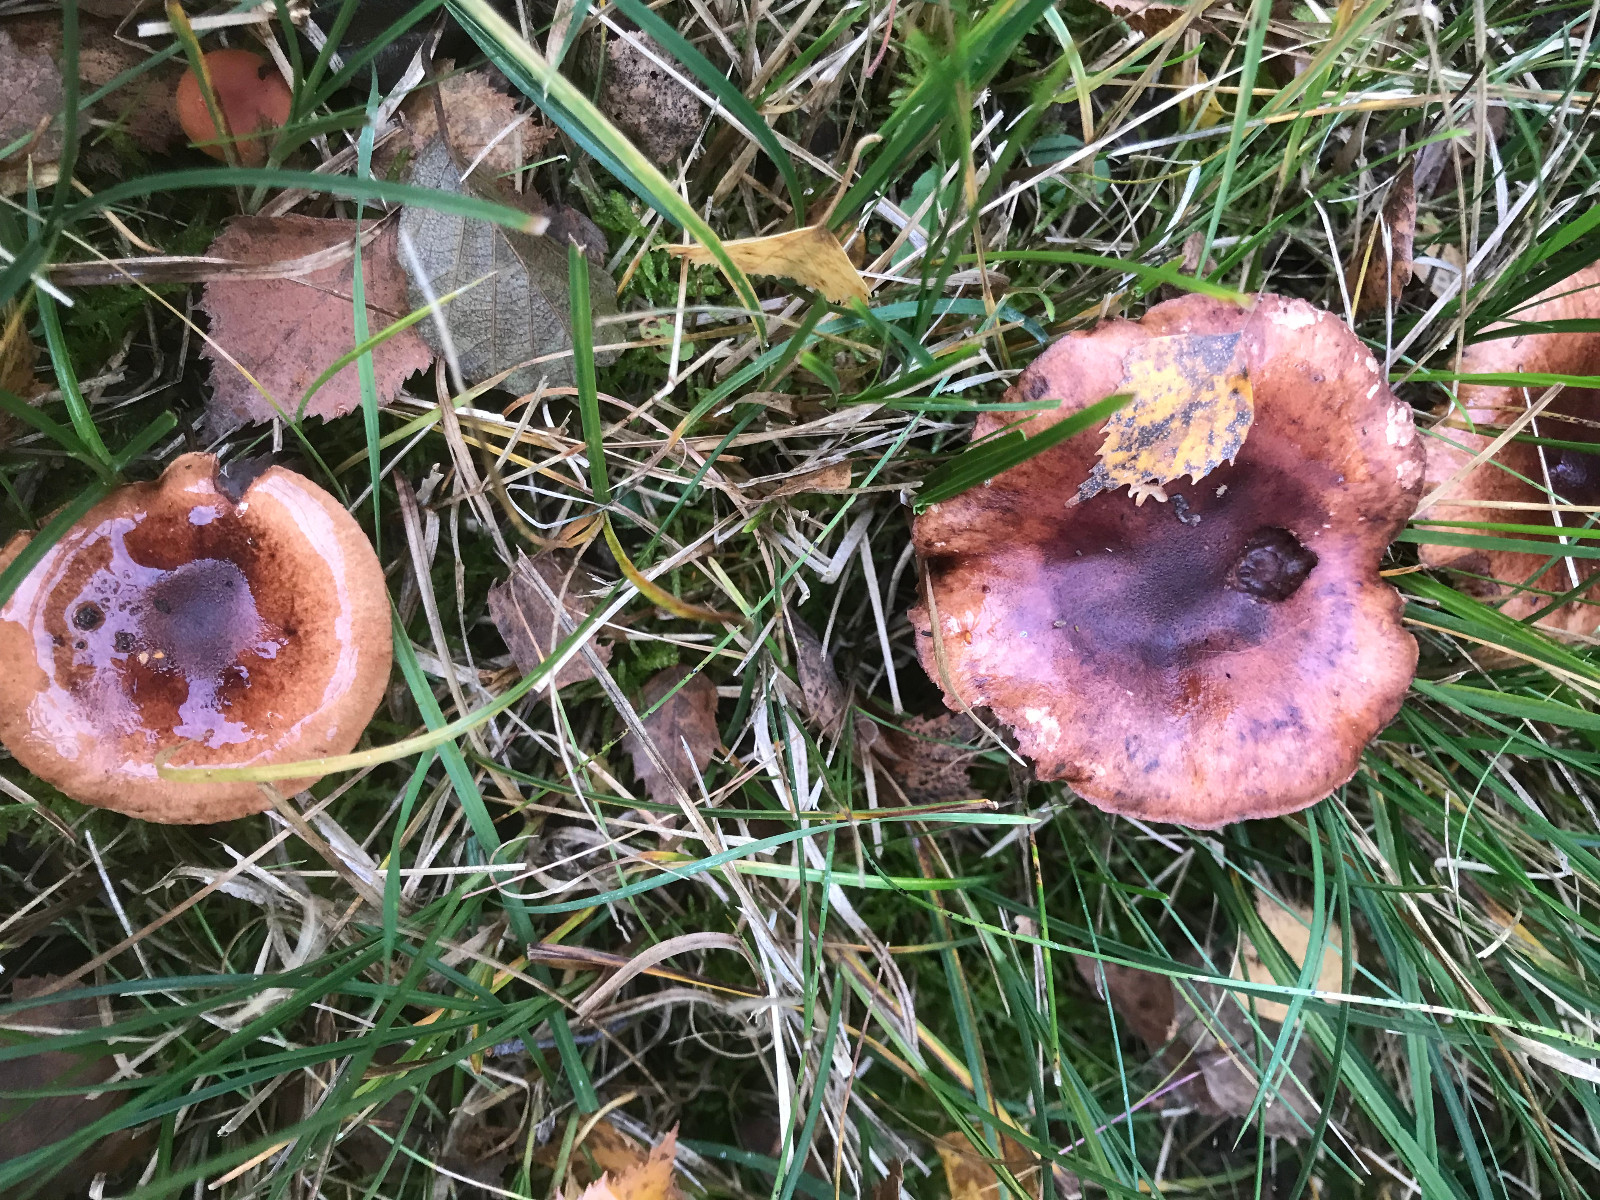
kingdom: Fungi
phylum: Basidiomycota
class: Agaricomycetes
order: Agaricales
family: Tricholomataceae
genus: Tricholoma
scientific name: Tricholoma fulvum
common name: birke-ridderhat
